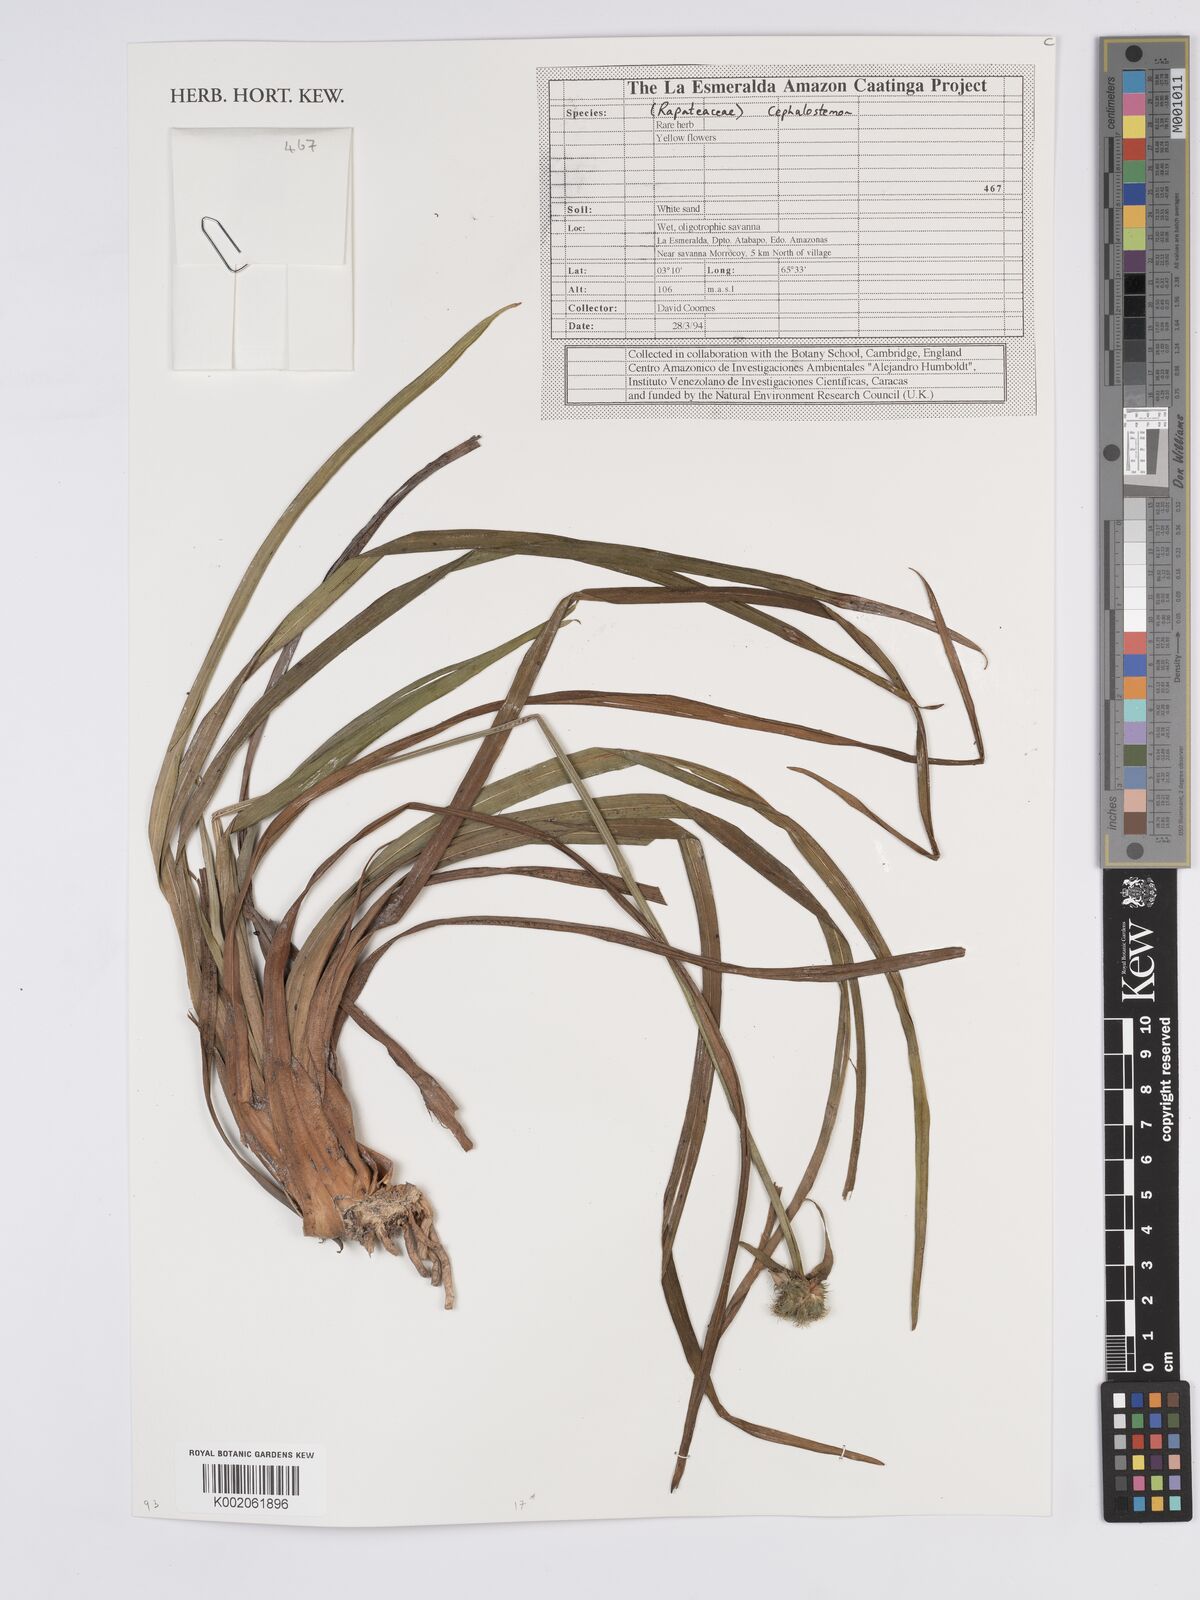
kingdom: Plantae
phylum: Tracheophyta
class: Liliopsida
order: Poales
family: Rapateaceae
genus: Cephalostemon
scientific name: Cephalostemon
